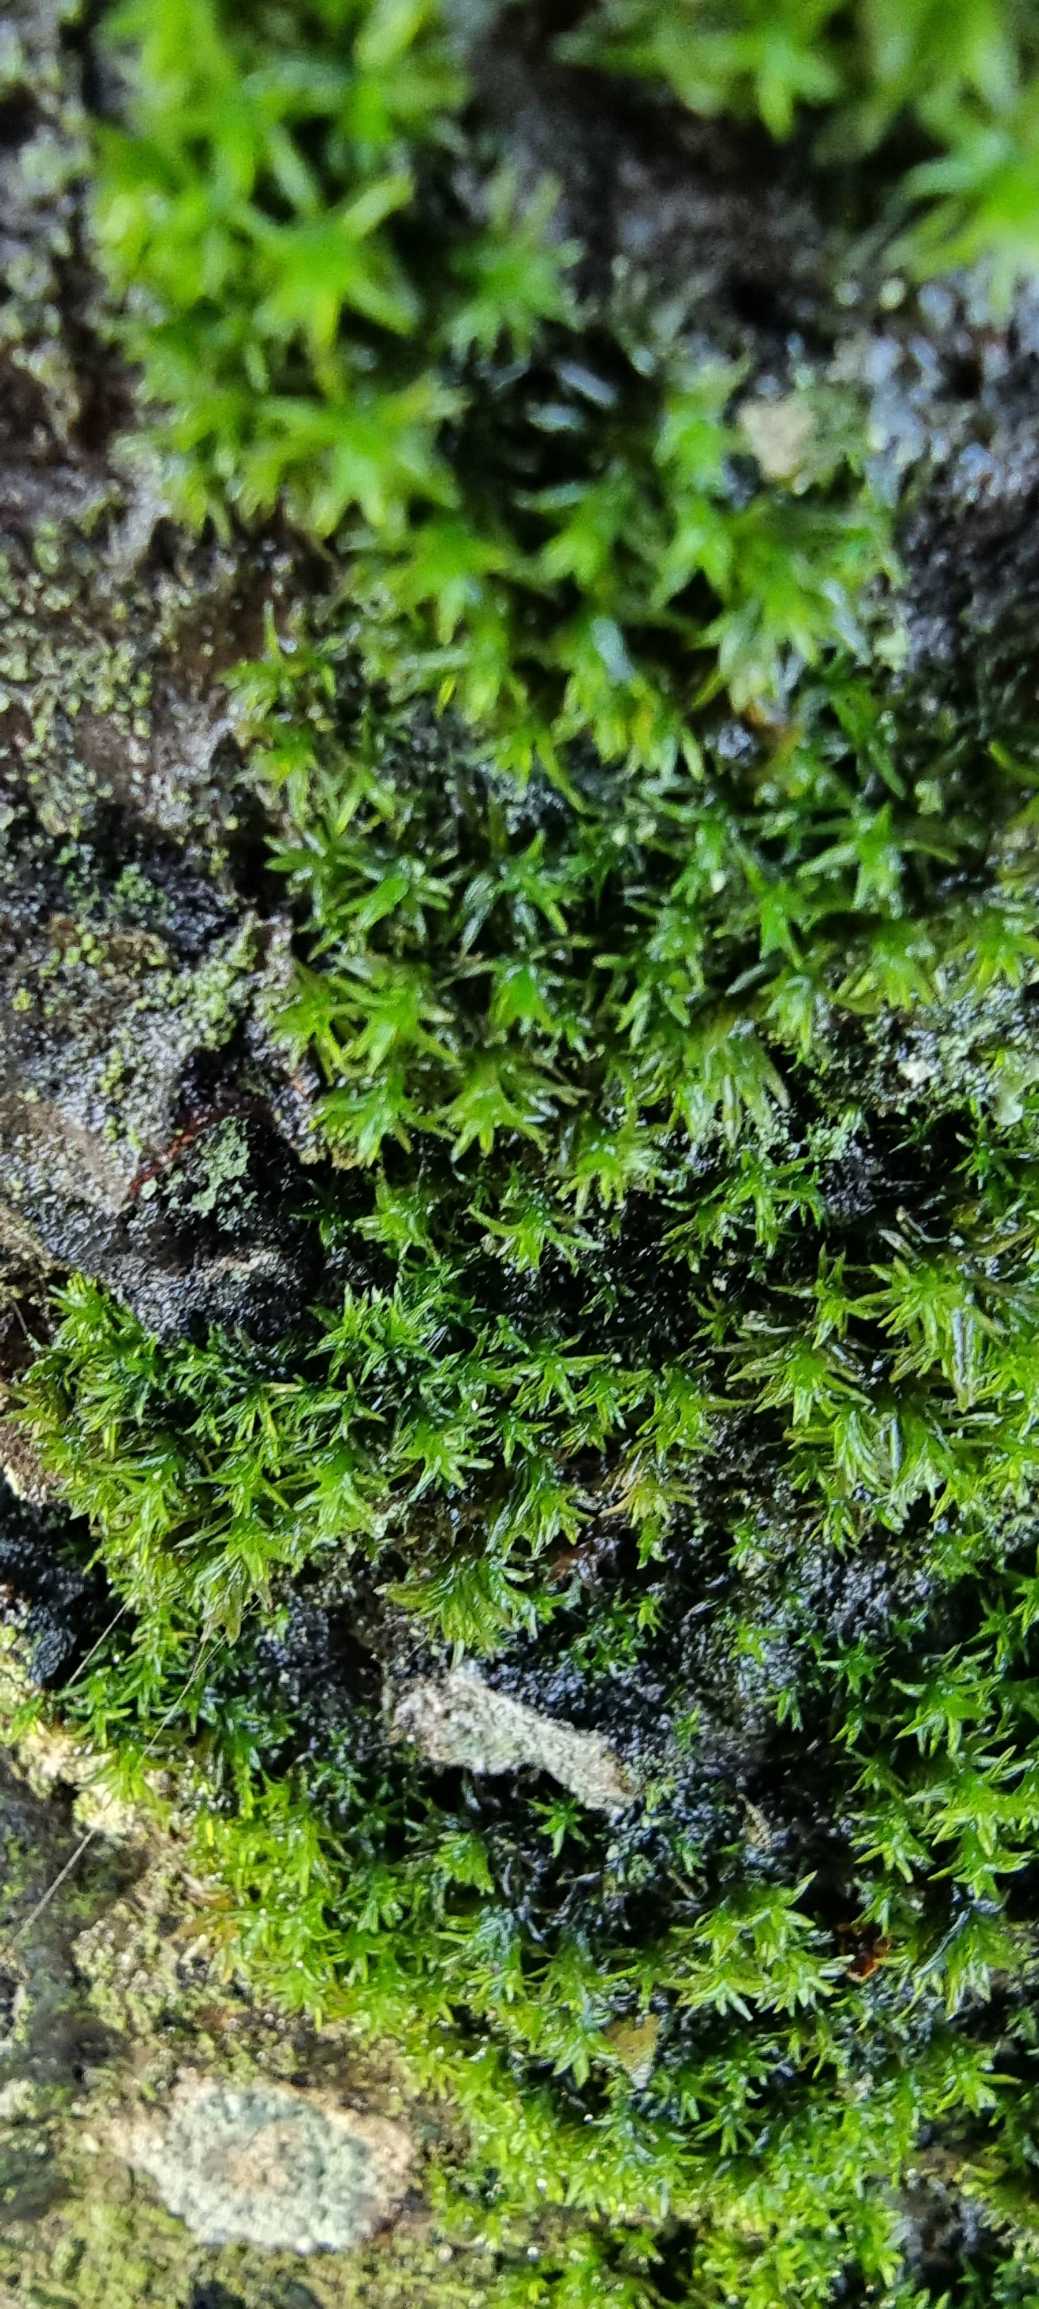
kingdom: Plantae
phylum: Bryophyta
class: Bryopsida
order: Orthotrichales
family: Orthotrichaceae
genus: Orthotrichum
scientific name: Orthotrichum
